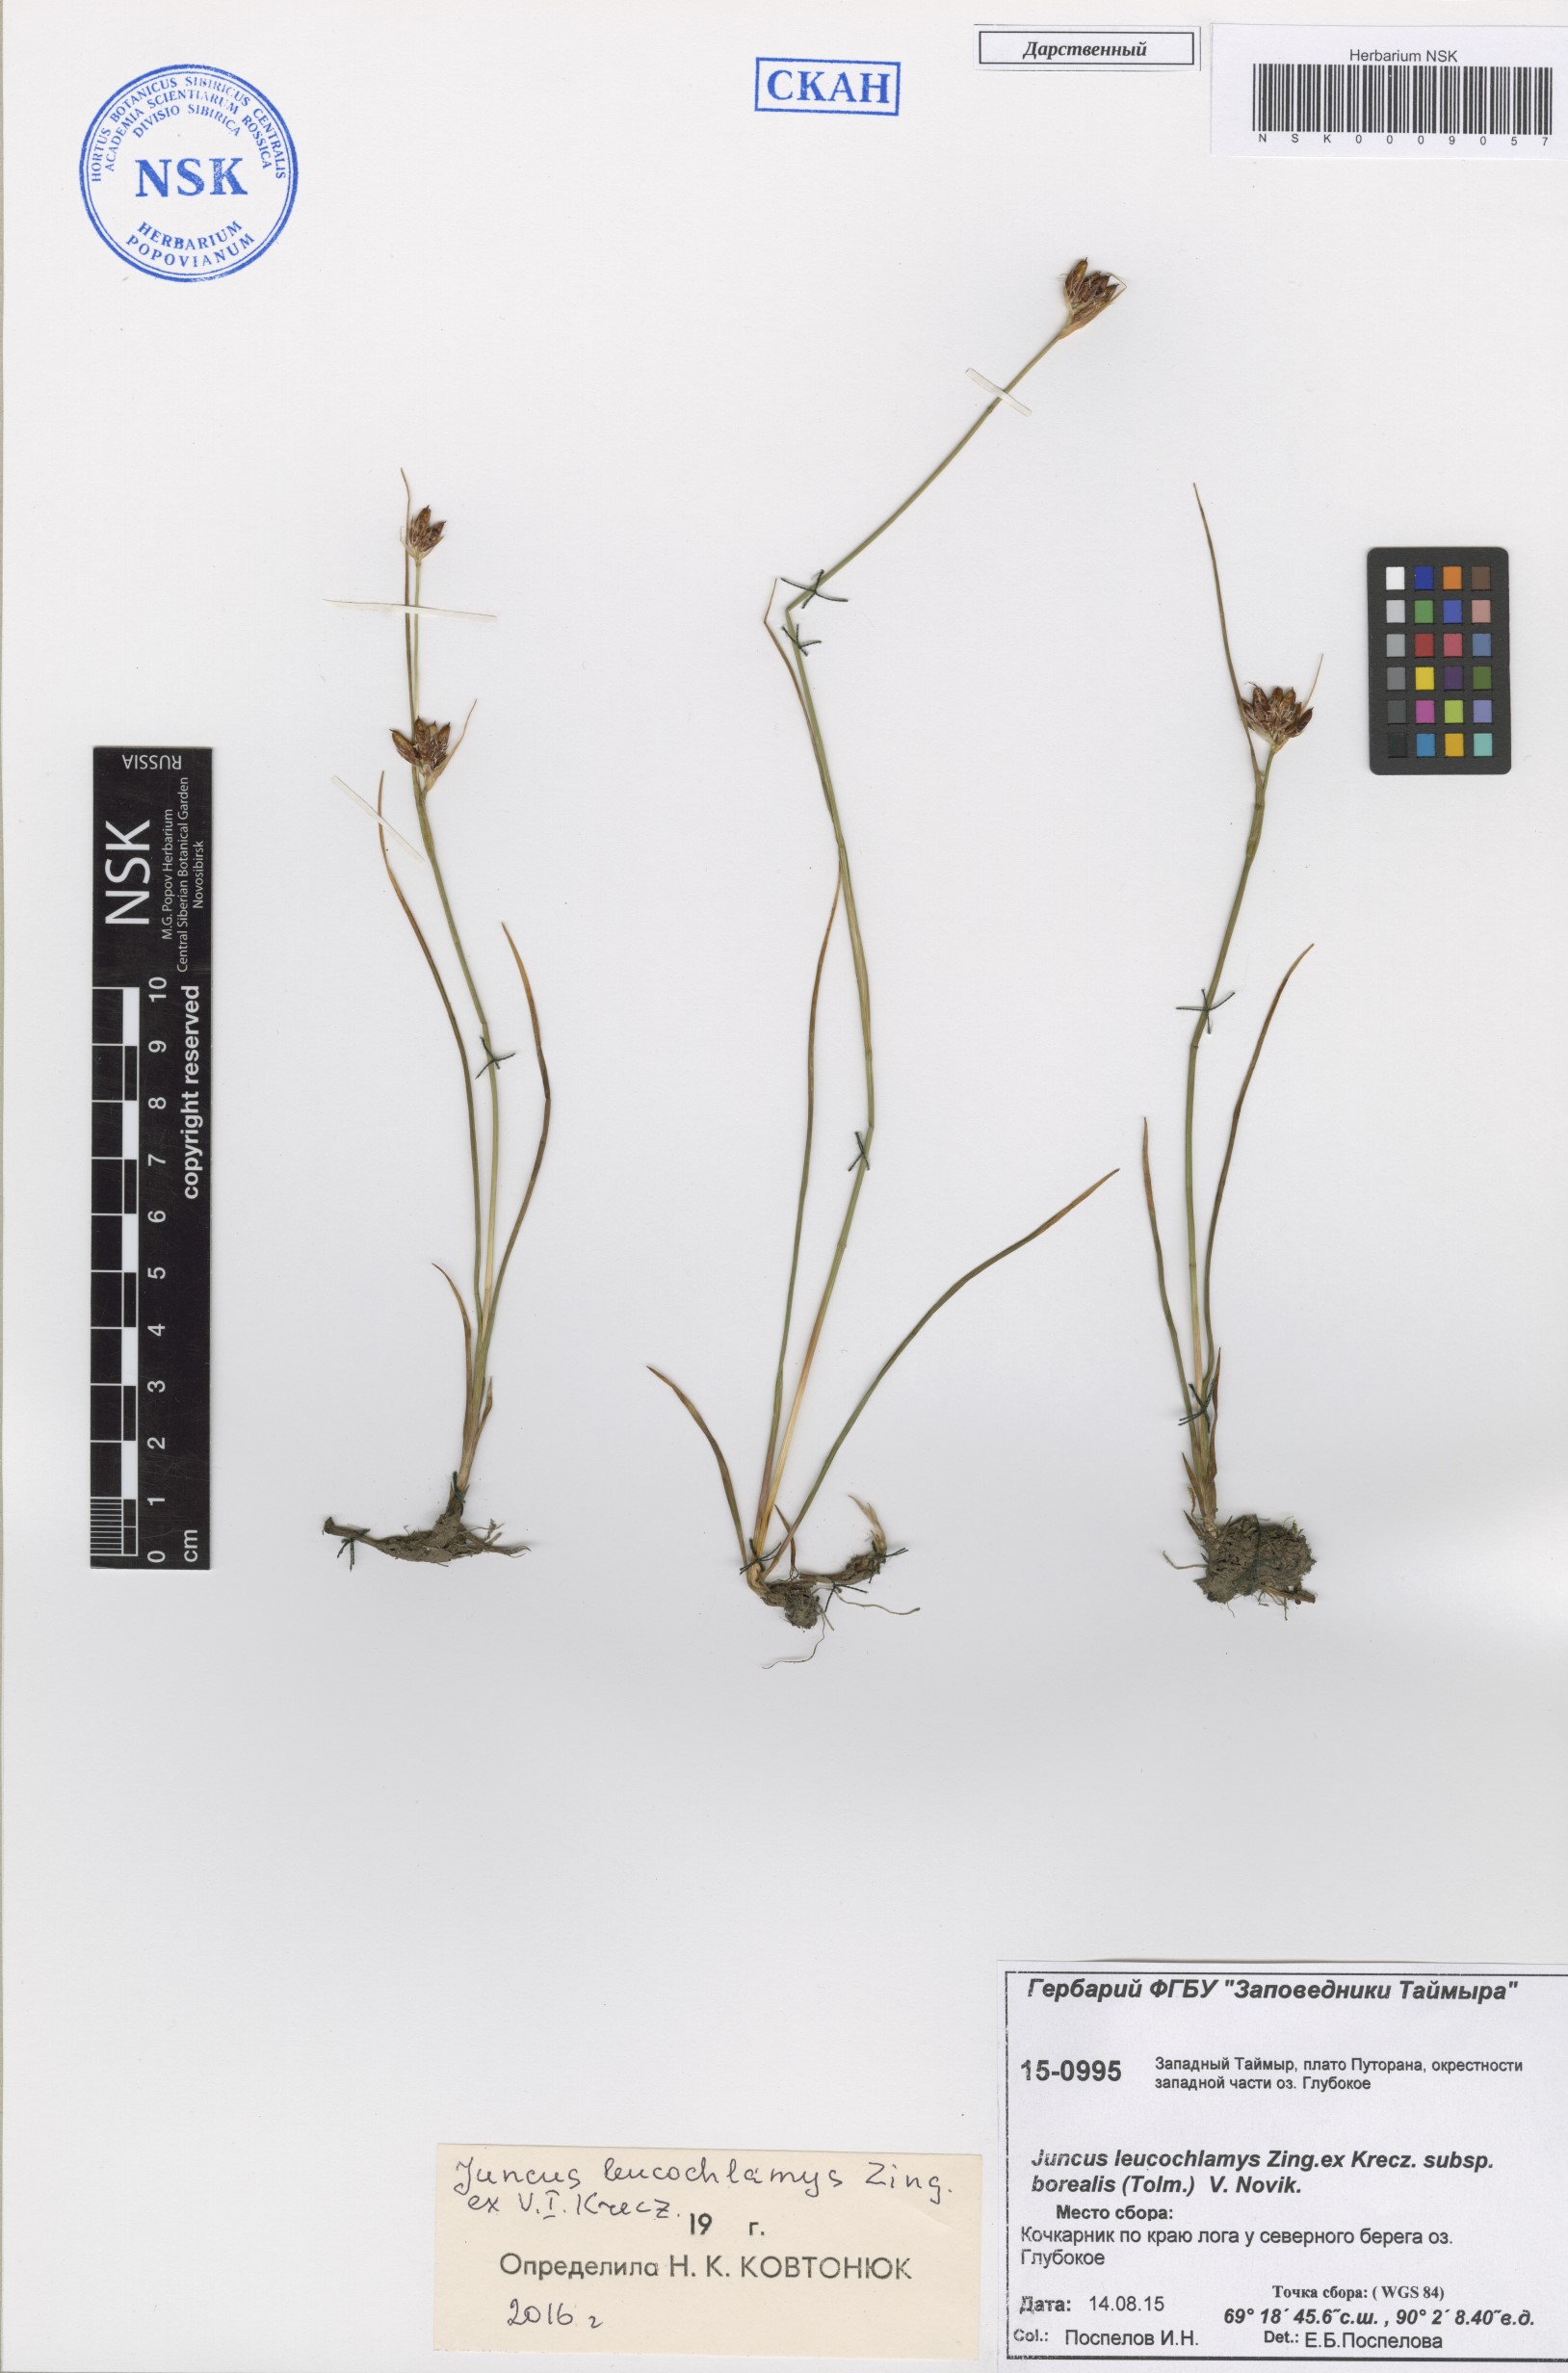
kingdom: Plantae
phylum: Tracheophyta
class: Liliopsida
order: Poales
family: Juncaceae
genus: Juncus
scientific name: Juncus castaneus
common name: Chestnut rush
